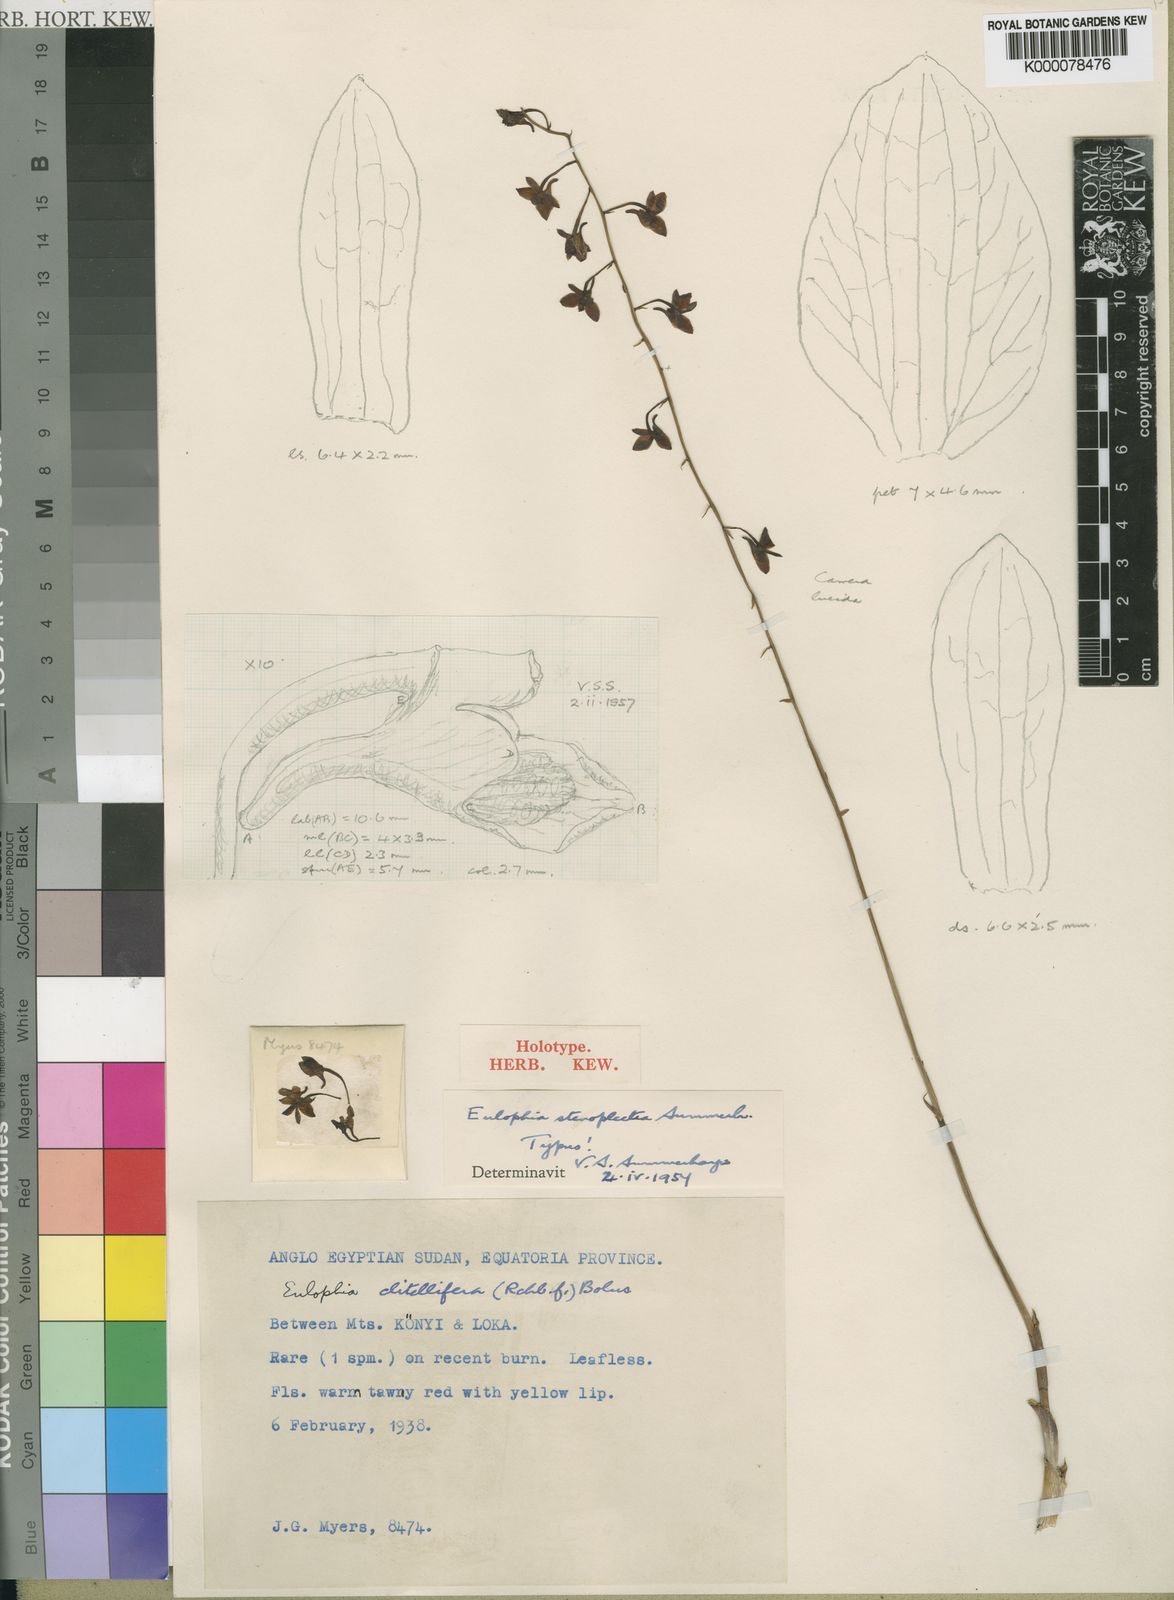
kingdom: Plantae
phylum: Tracheophyta
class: Liliopsida
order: Asparagales
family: Orchidaceae
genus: Eulophia
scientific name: Eulophia stenoplectra
